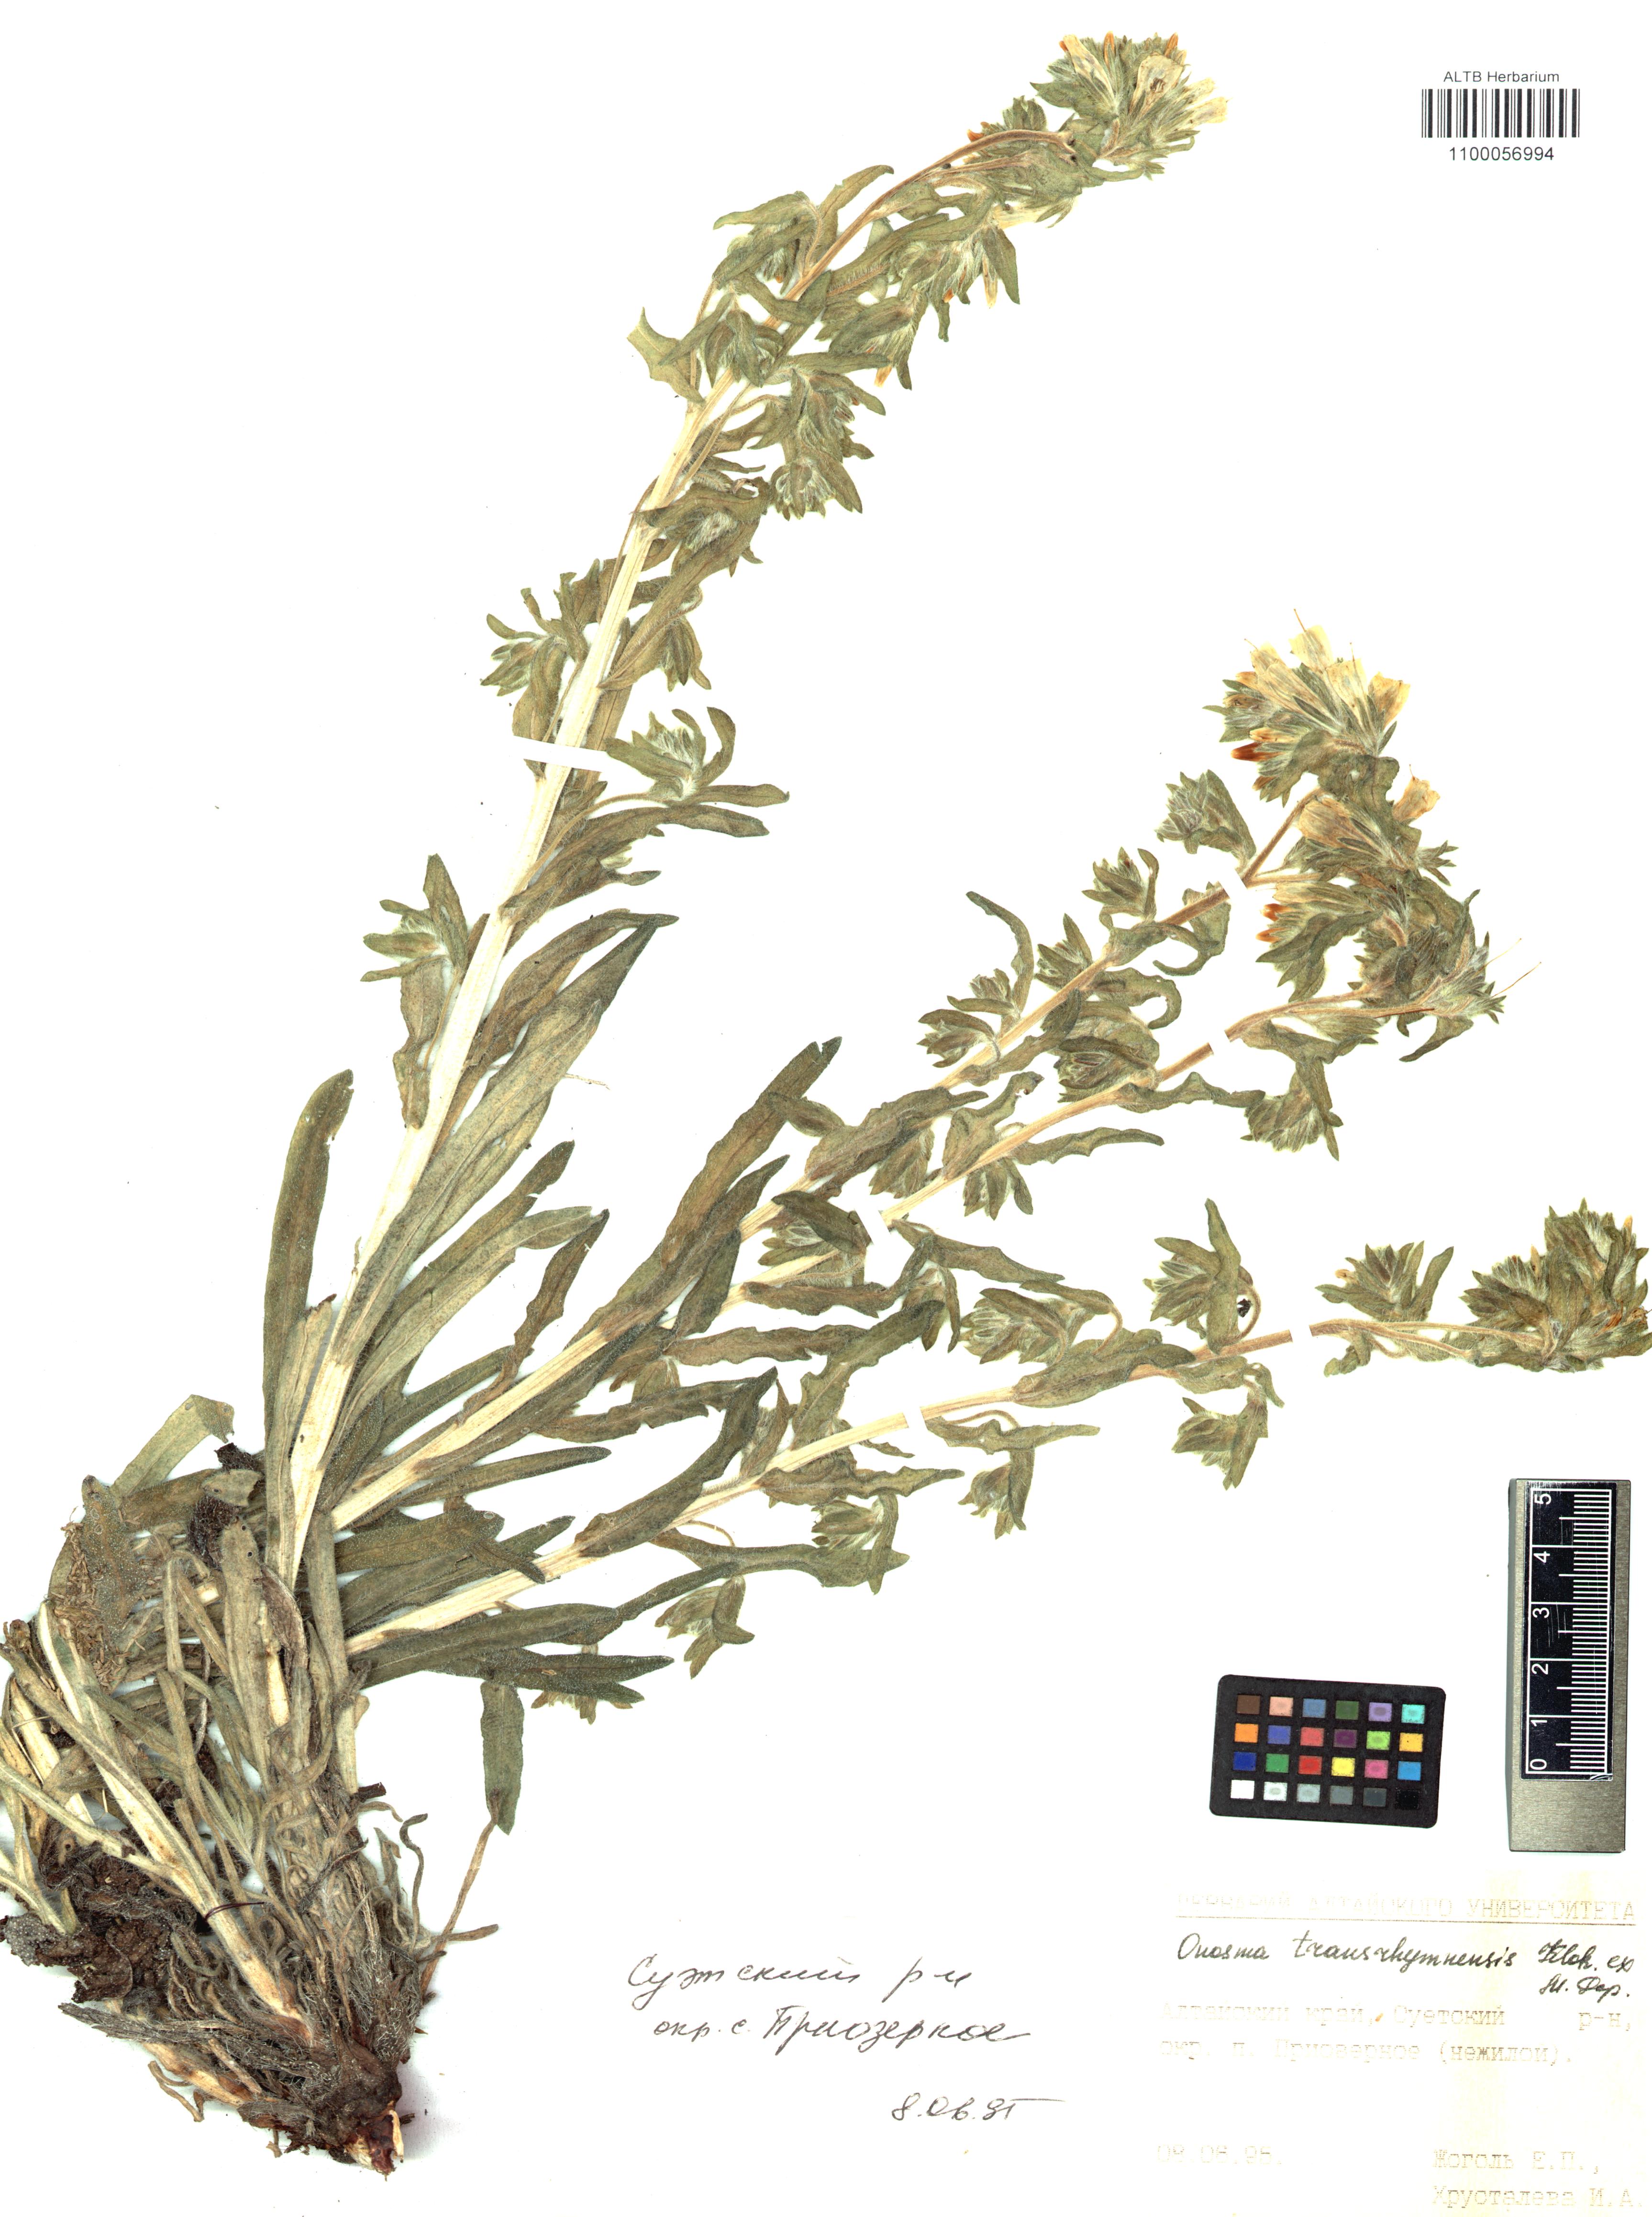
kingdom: Plantae
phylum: Tracheophyta
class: Magnoliopsida
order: Boraginales
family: Boraginaceae
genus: Onosma
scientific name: Onosma transrhymnensis
